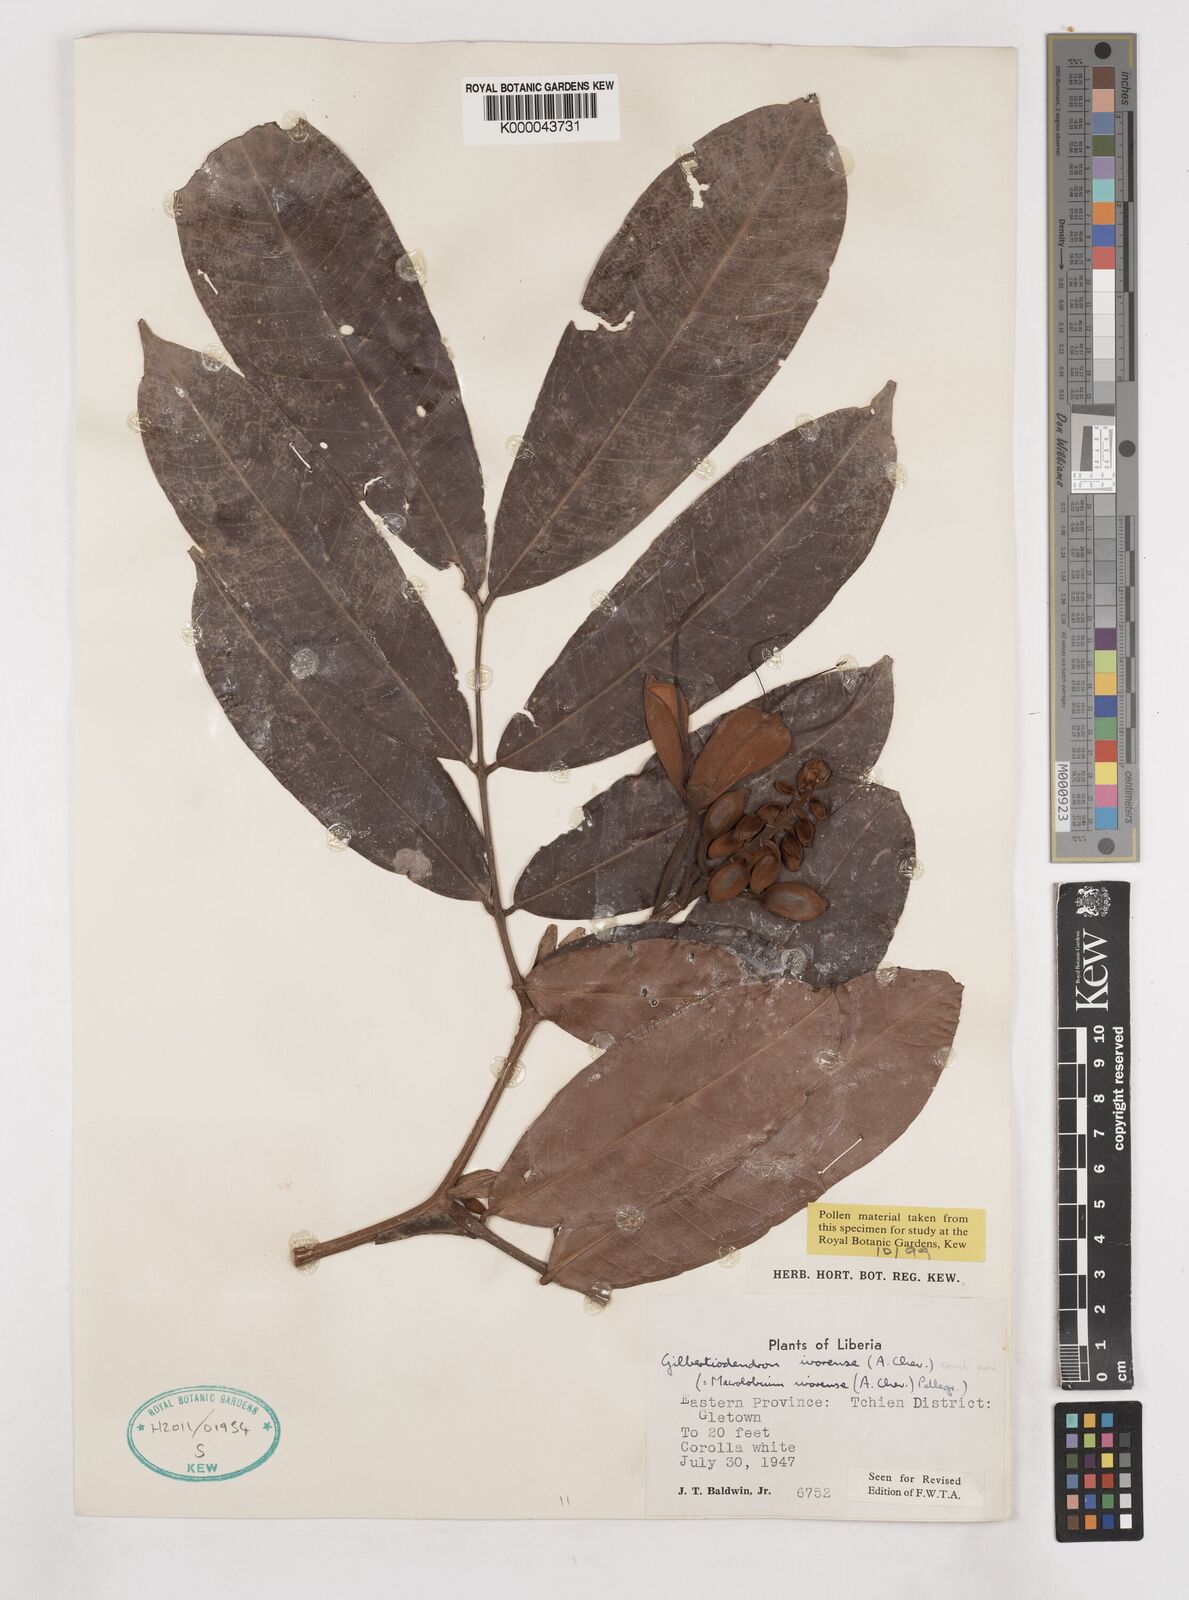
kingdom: Plantae
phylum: Tracheophyta
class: Magnoliopsida
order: Fabales
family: Fabaceae
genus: Gilbertiodendron
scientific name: Gilbertiodendron
